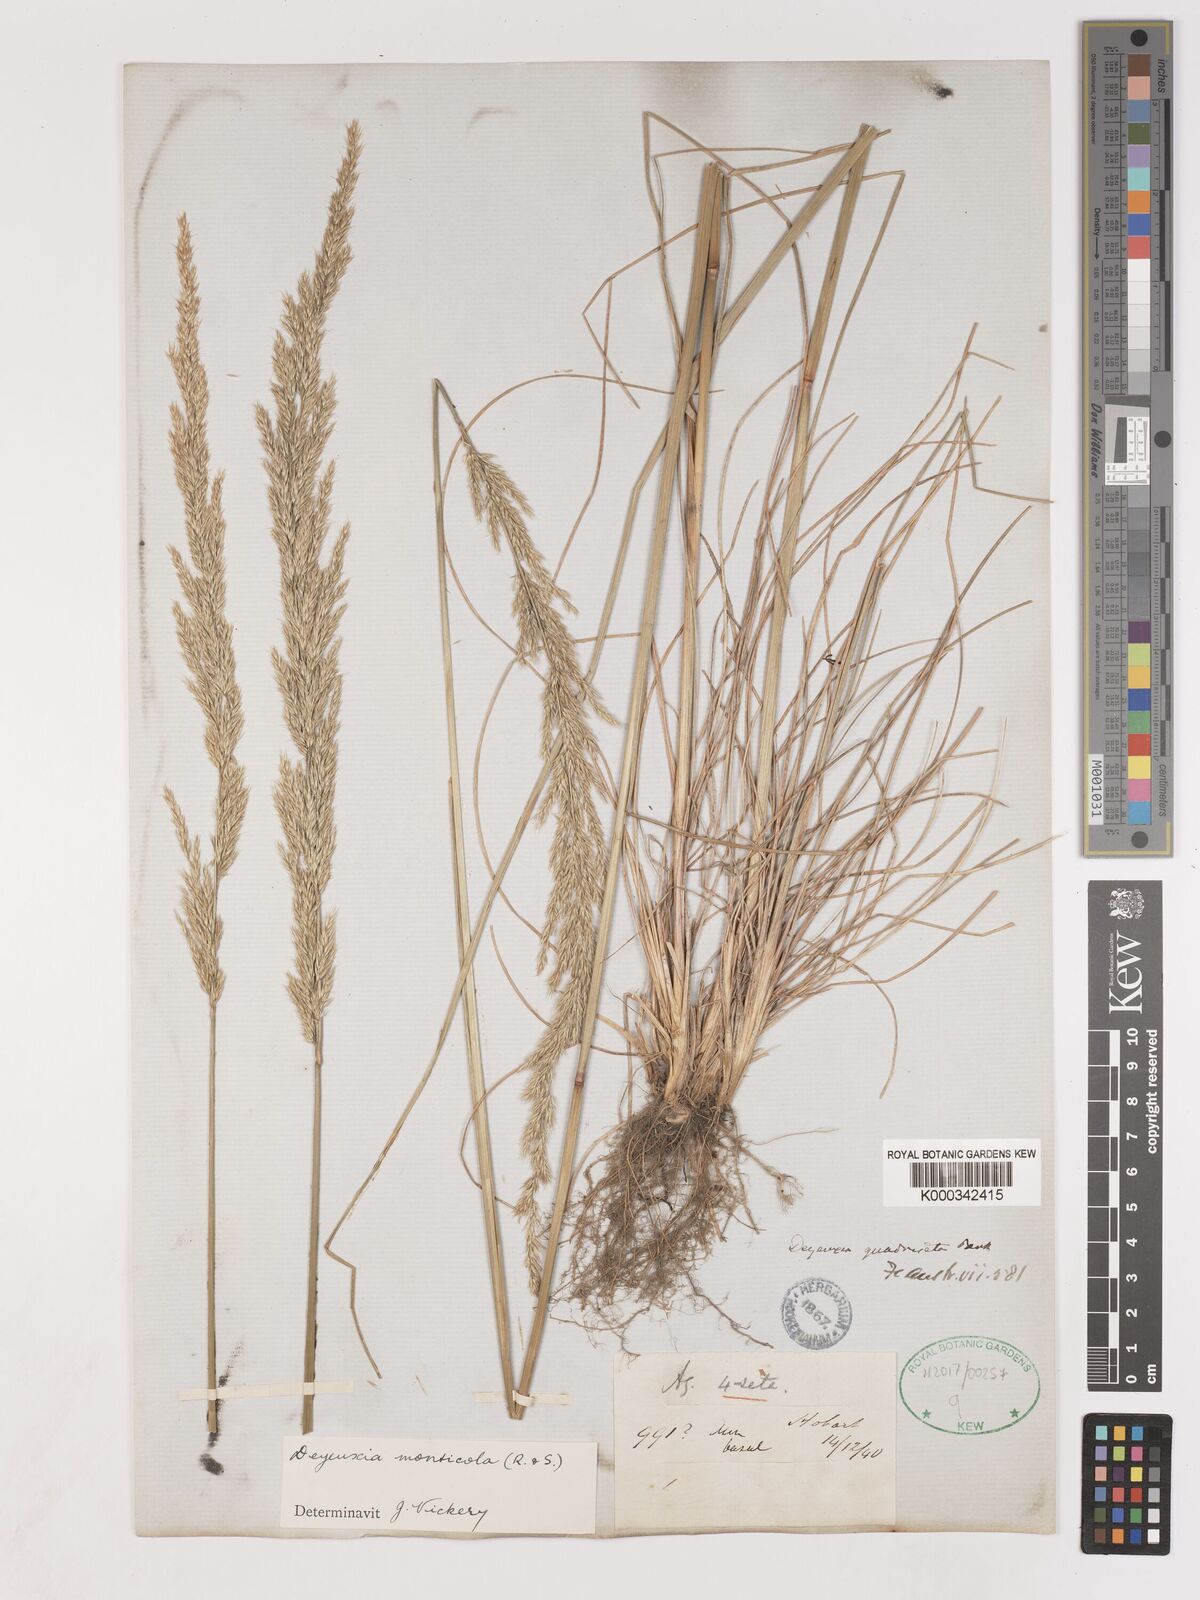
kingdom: Plantae
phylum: Tracheophyta
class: Liliopsida
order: Poales
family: Poaceae
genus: Calamagrostis
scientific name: Calamagrostis oreophila
